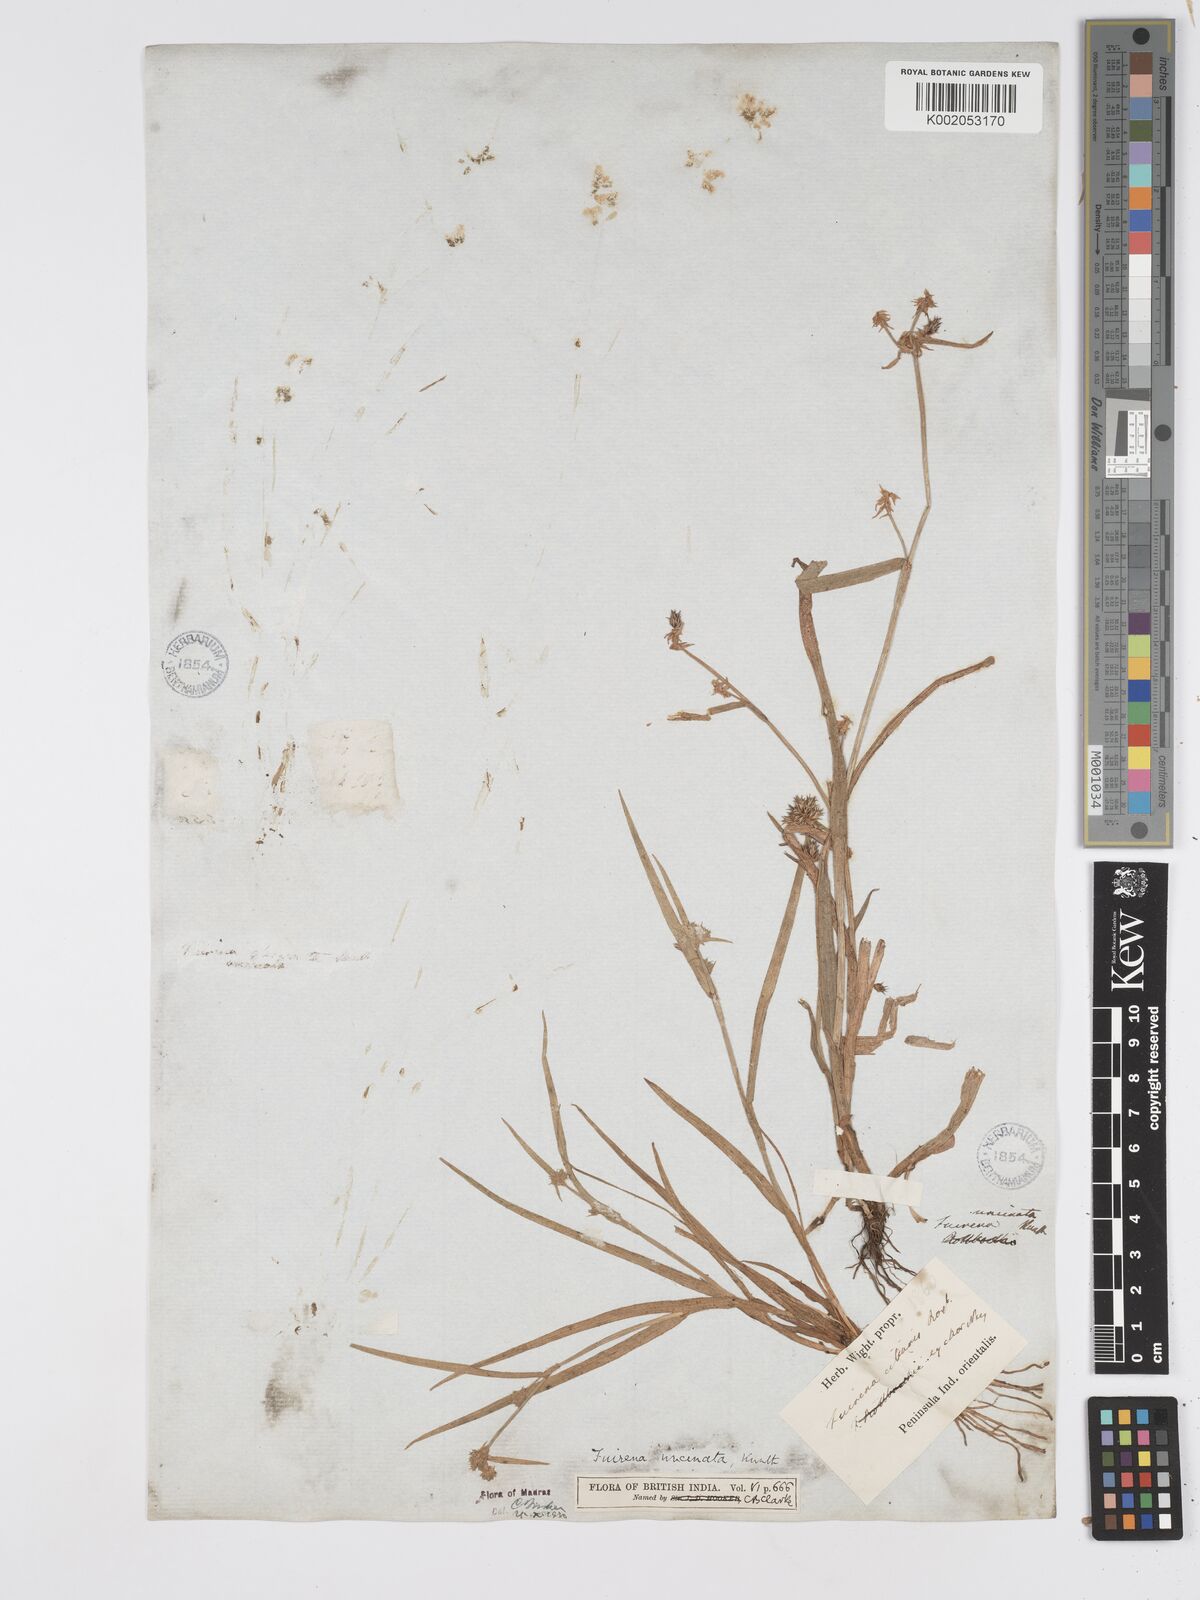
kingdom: Plantae
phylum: Tracheophyta
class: Liliopsida
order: Poales
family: Cyperaceae
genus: Fuirena
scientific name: Fuirena uncinata
